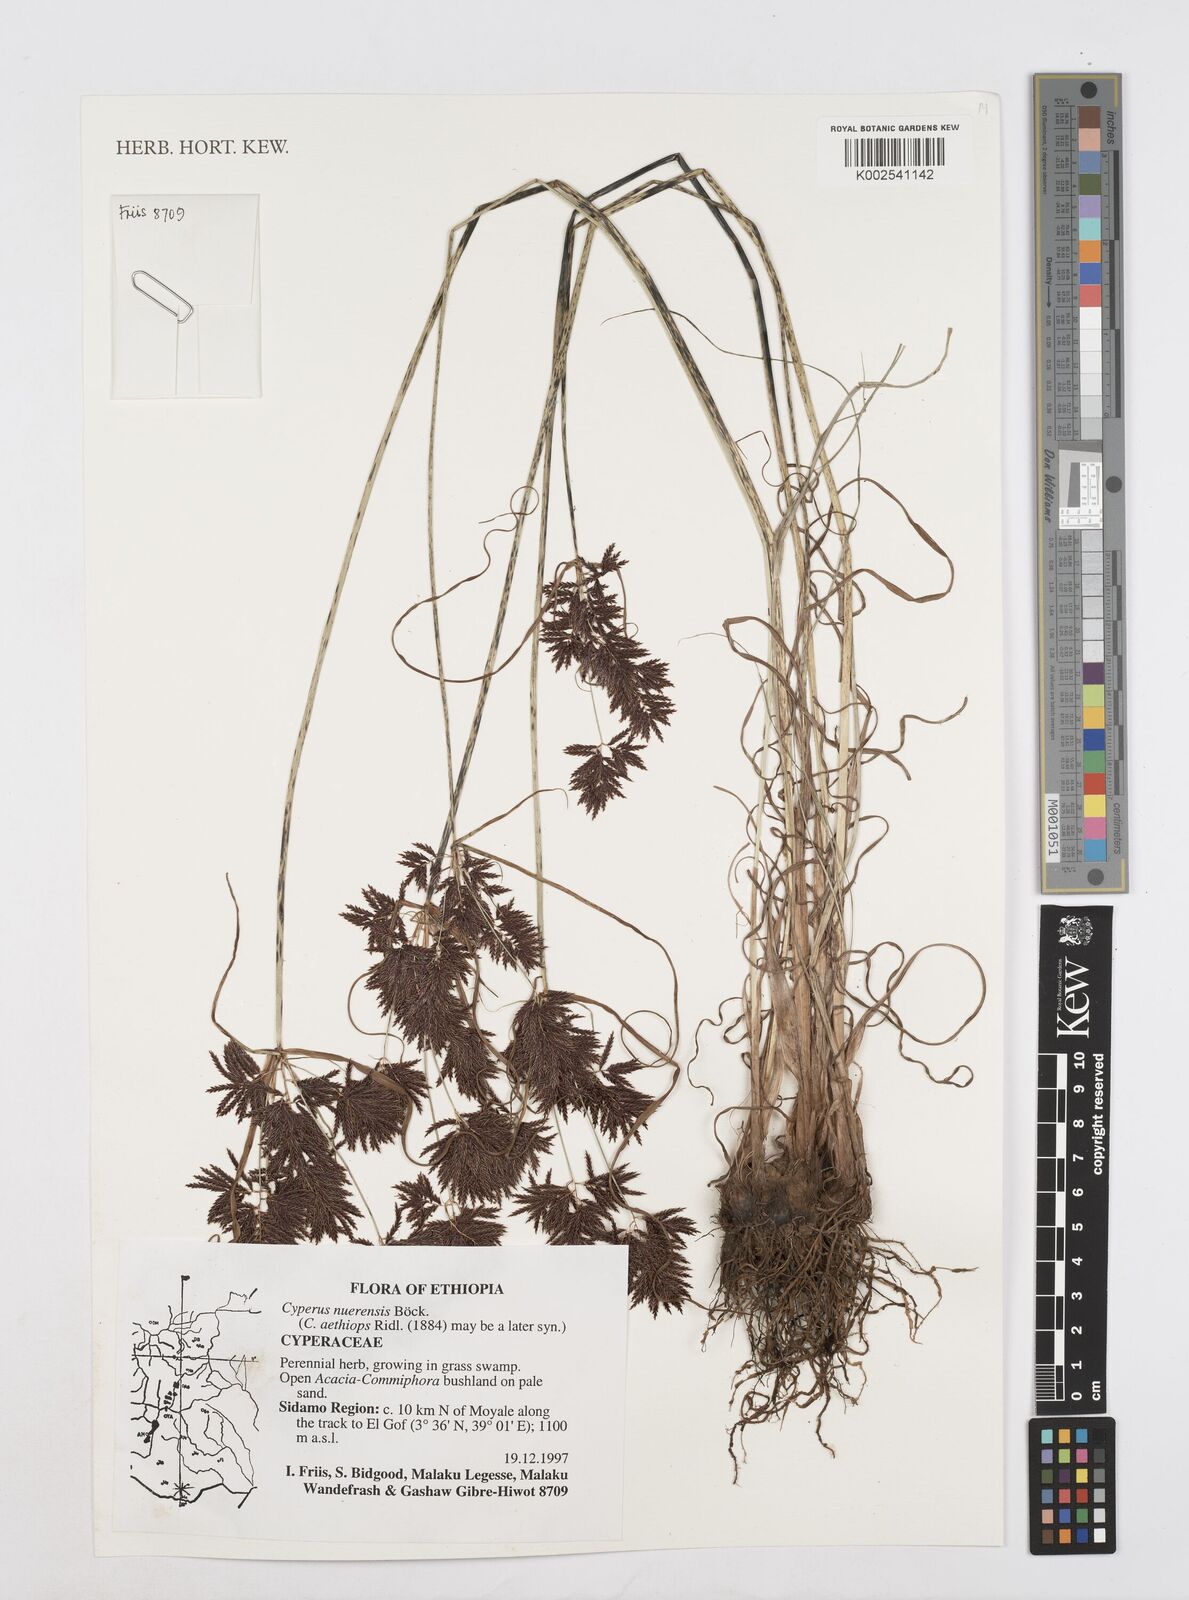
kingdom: Plantae
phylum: Tracheophyta
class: Liliopsida
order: Poales
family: Cyperaceae
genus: Cyperus
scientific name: Cyperus aethiops
